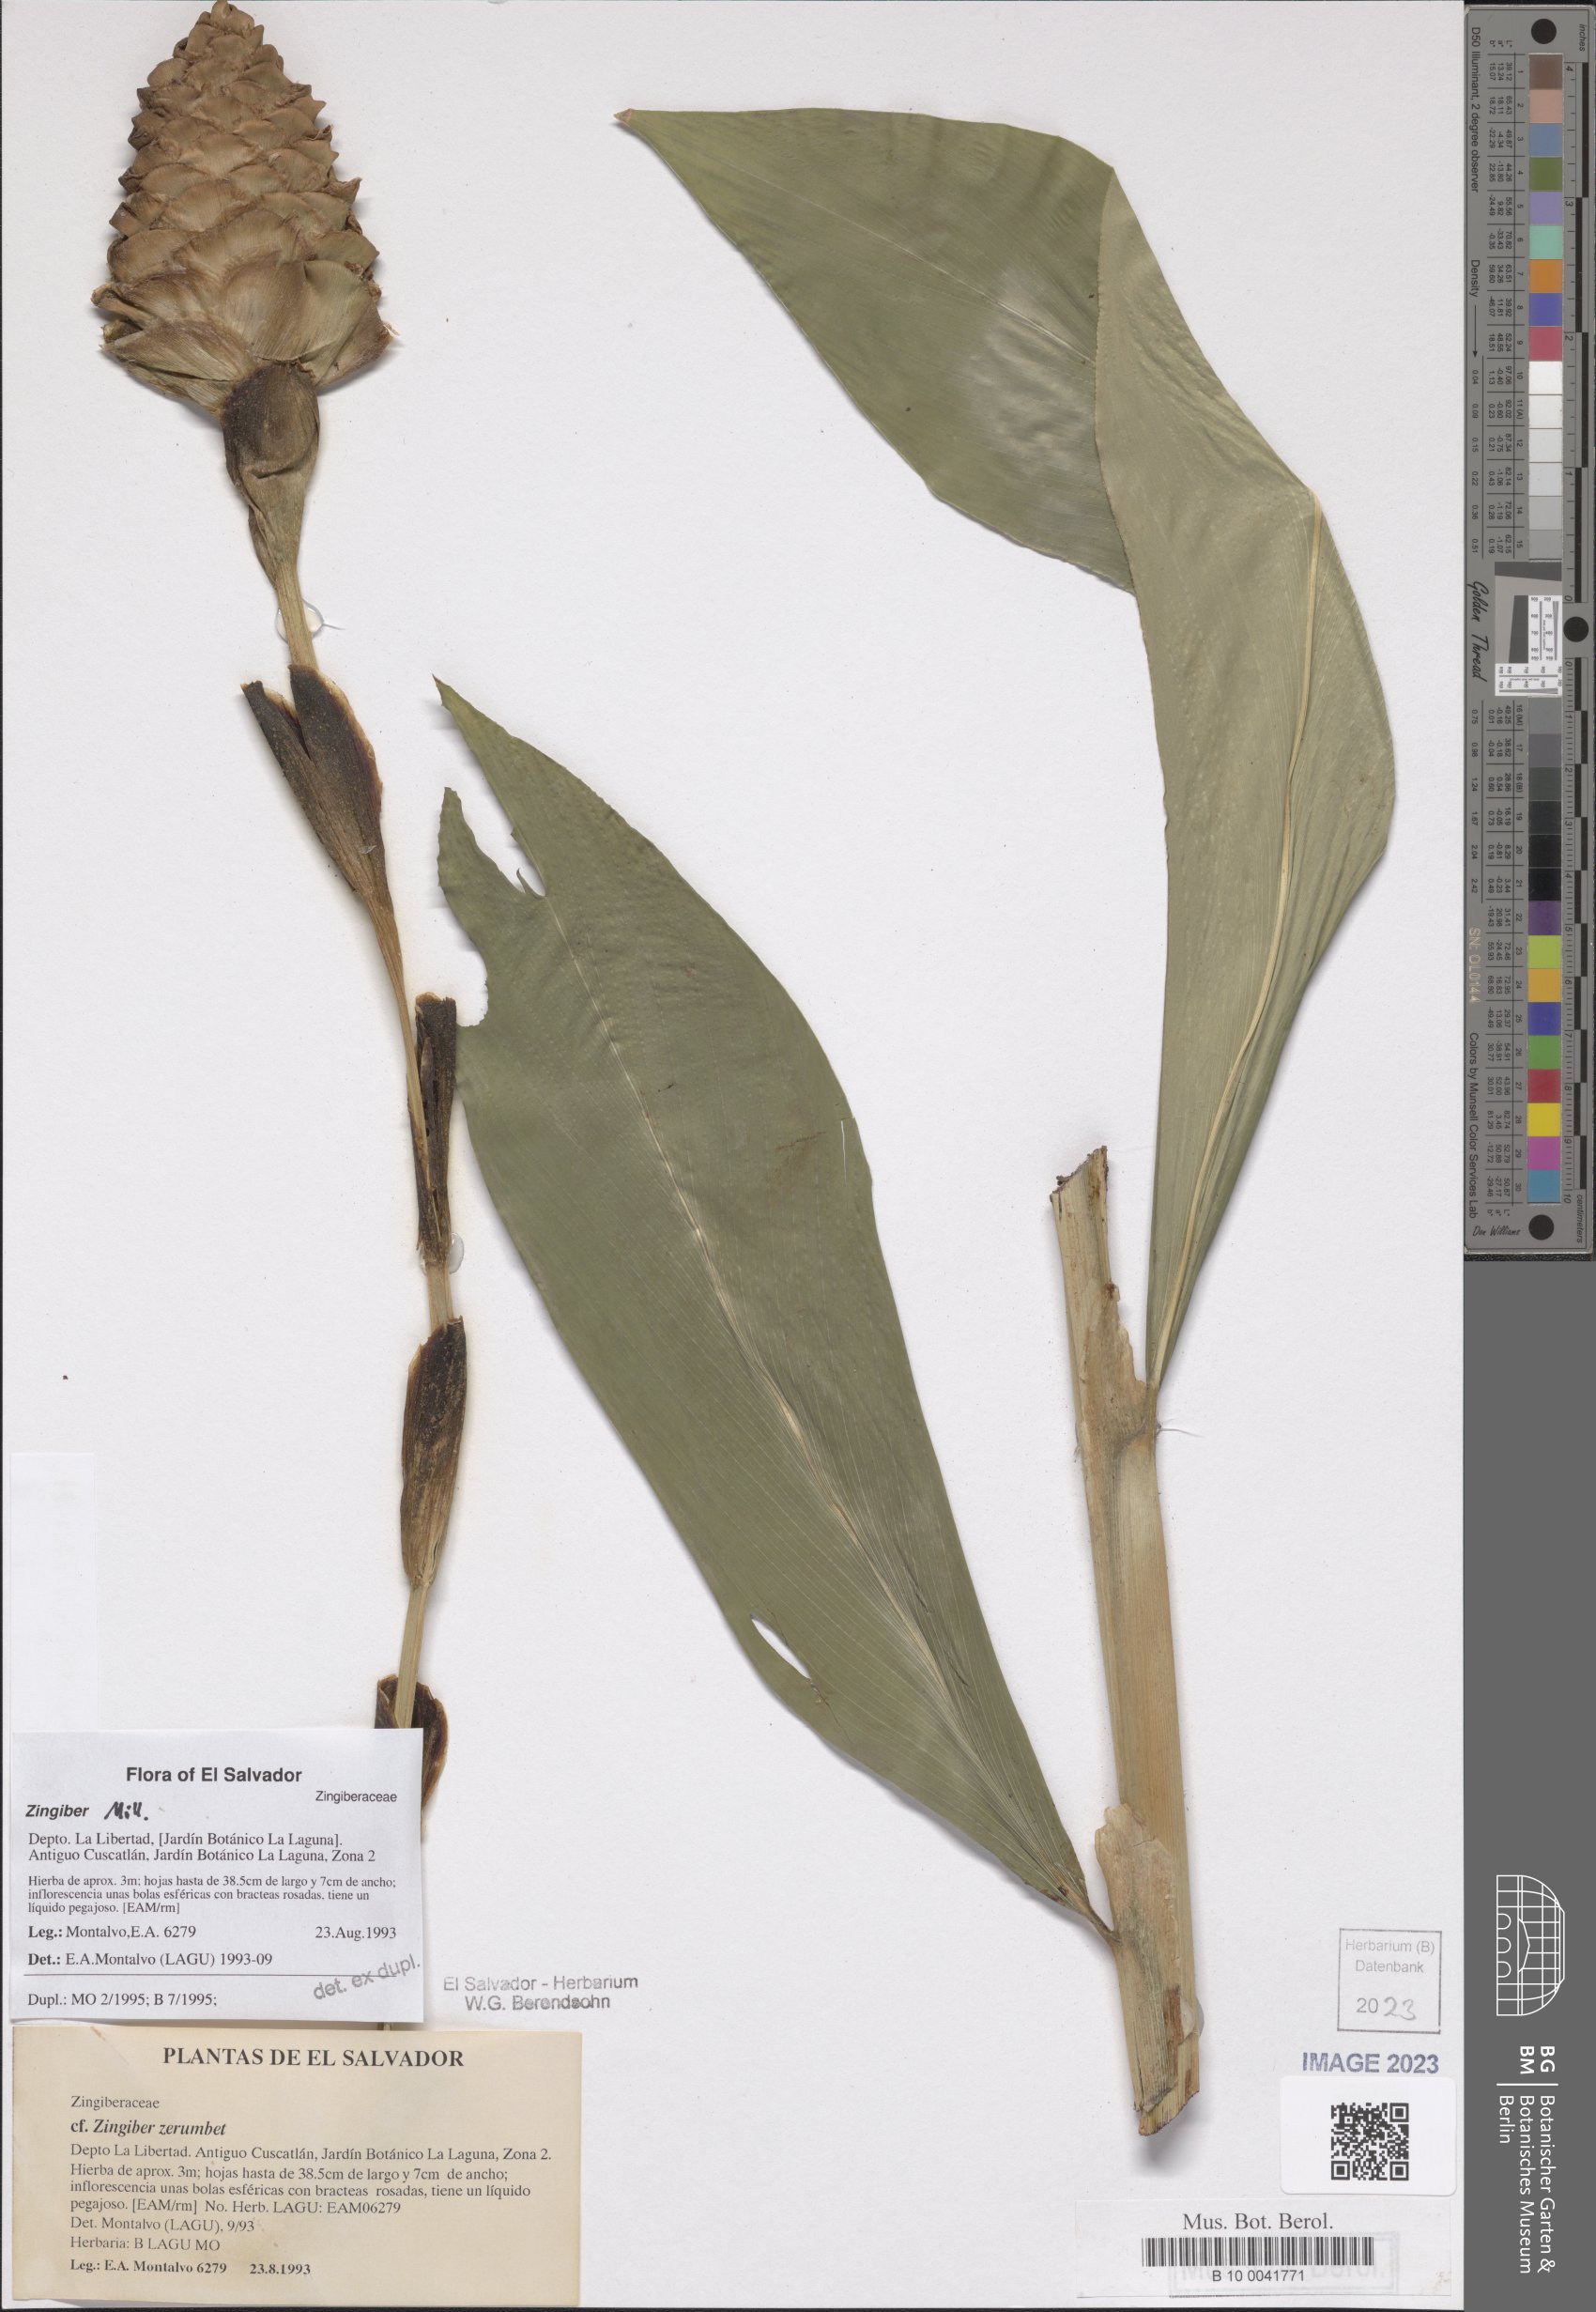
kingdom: Plantae
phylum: Tracheophyta
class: Liliopsida
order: Zingiberales
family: Zingiberaceae
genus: Zingiber
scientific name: Zingiber
